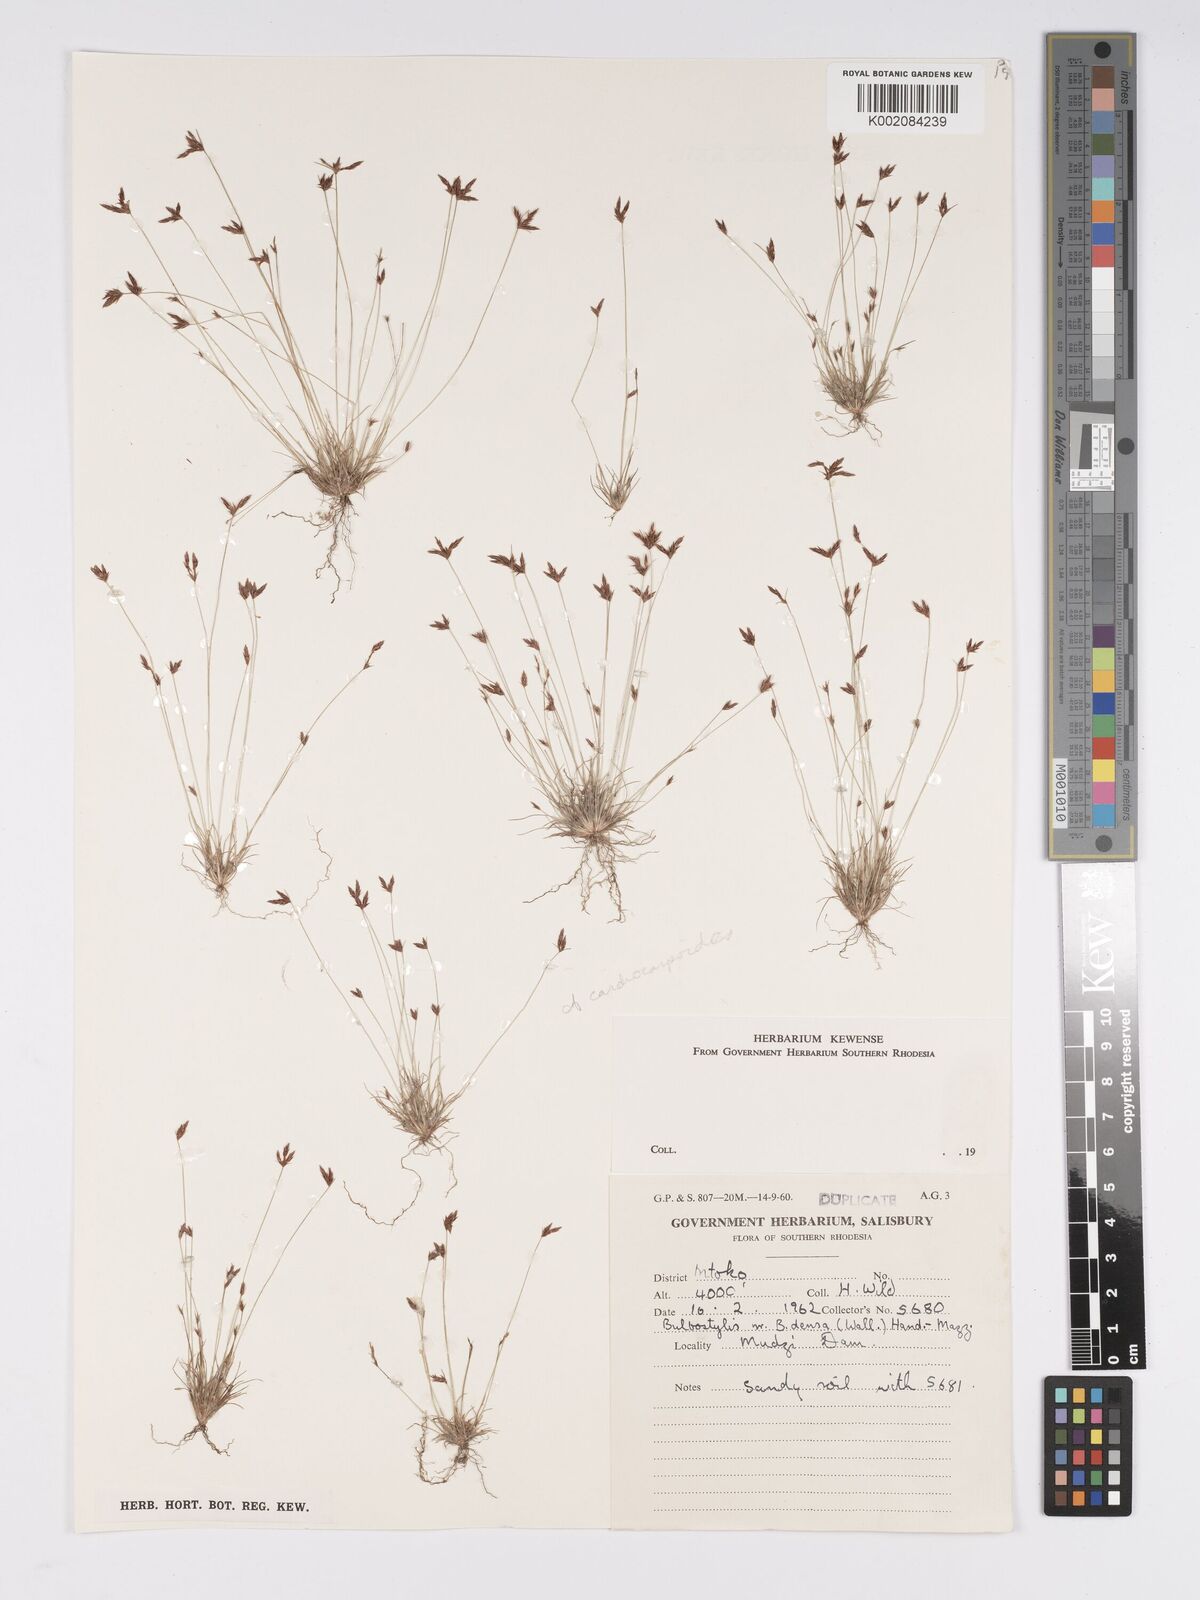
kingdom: Plantae
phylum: Tracheophyta
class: Liliopsida
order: Poales
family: Cyperaceae
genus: Bulbostylis
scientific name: Bulbostylis
